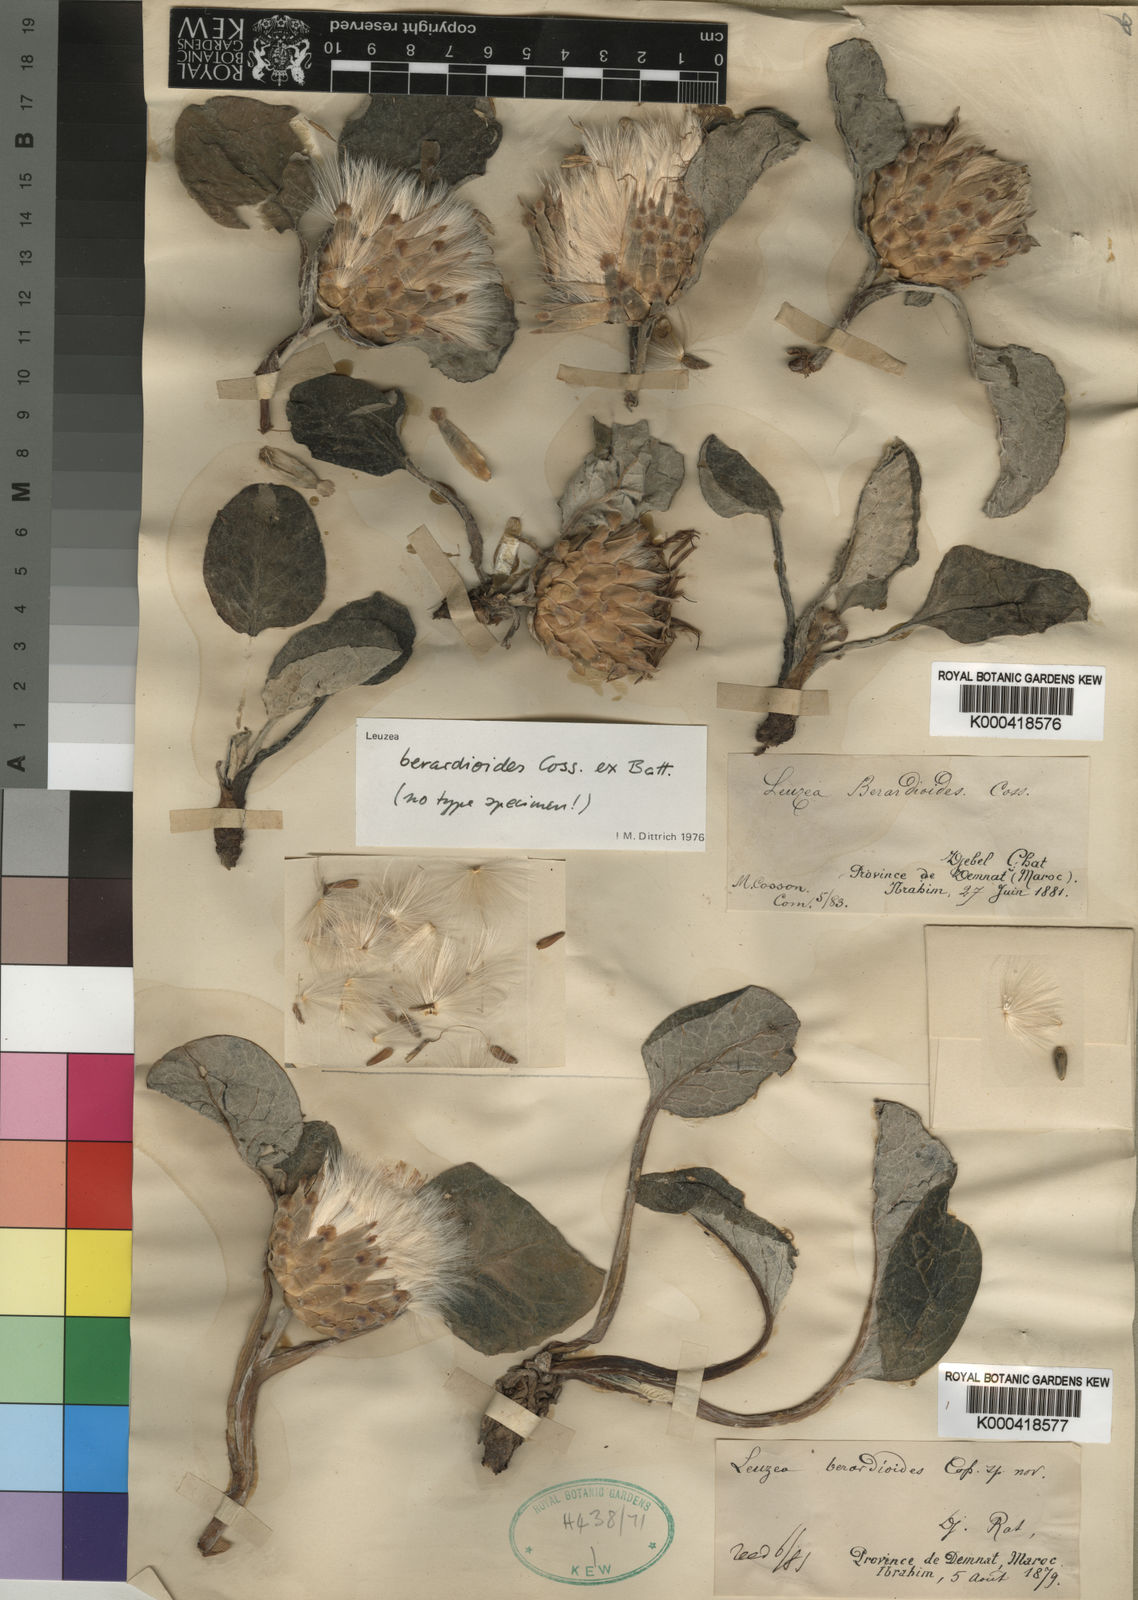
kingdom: Plantae
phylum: Tracheophyta
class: Magnoliopsida
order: Asterales
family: Asteraceae
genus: Leuzea
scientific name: Leuzea berardioides
